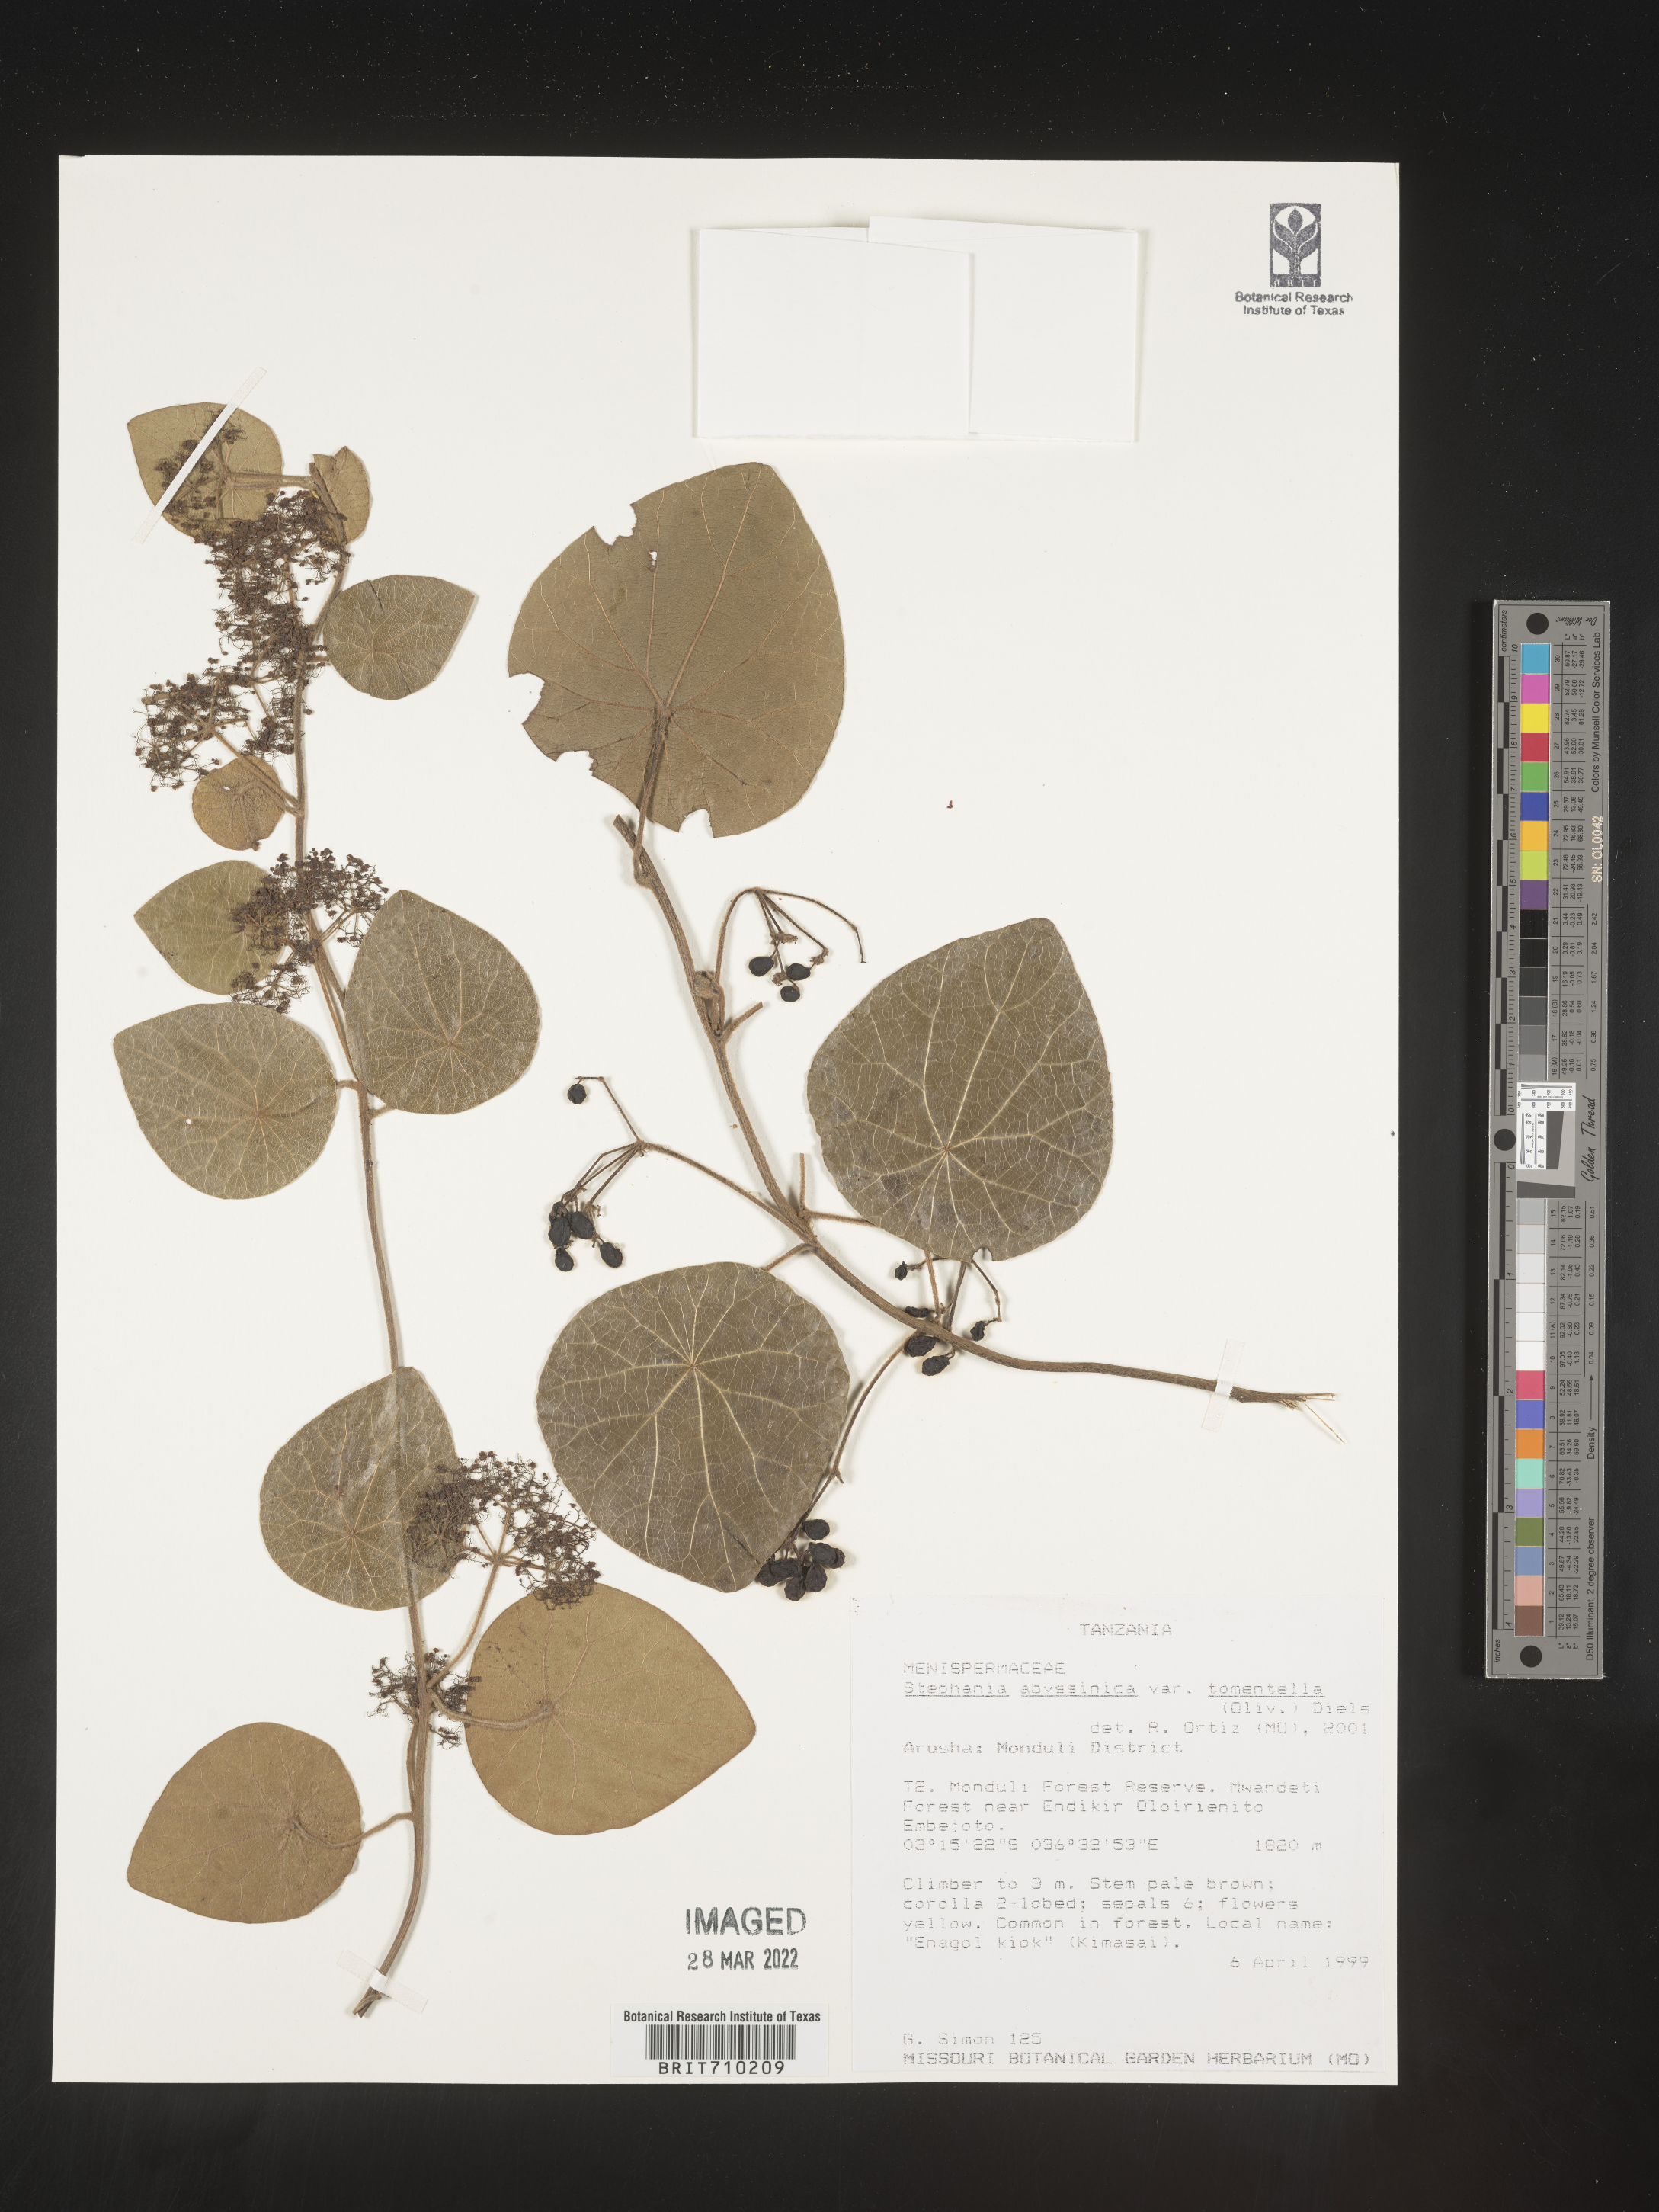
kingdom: Plantae
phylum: Tracheophyta
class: Magnoliopsida
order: Ranunculales
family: Menispermaceae
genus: Stephania
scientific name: Stephania
